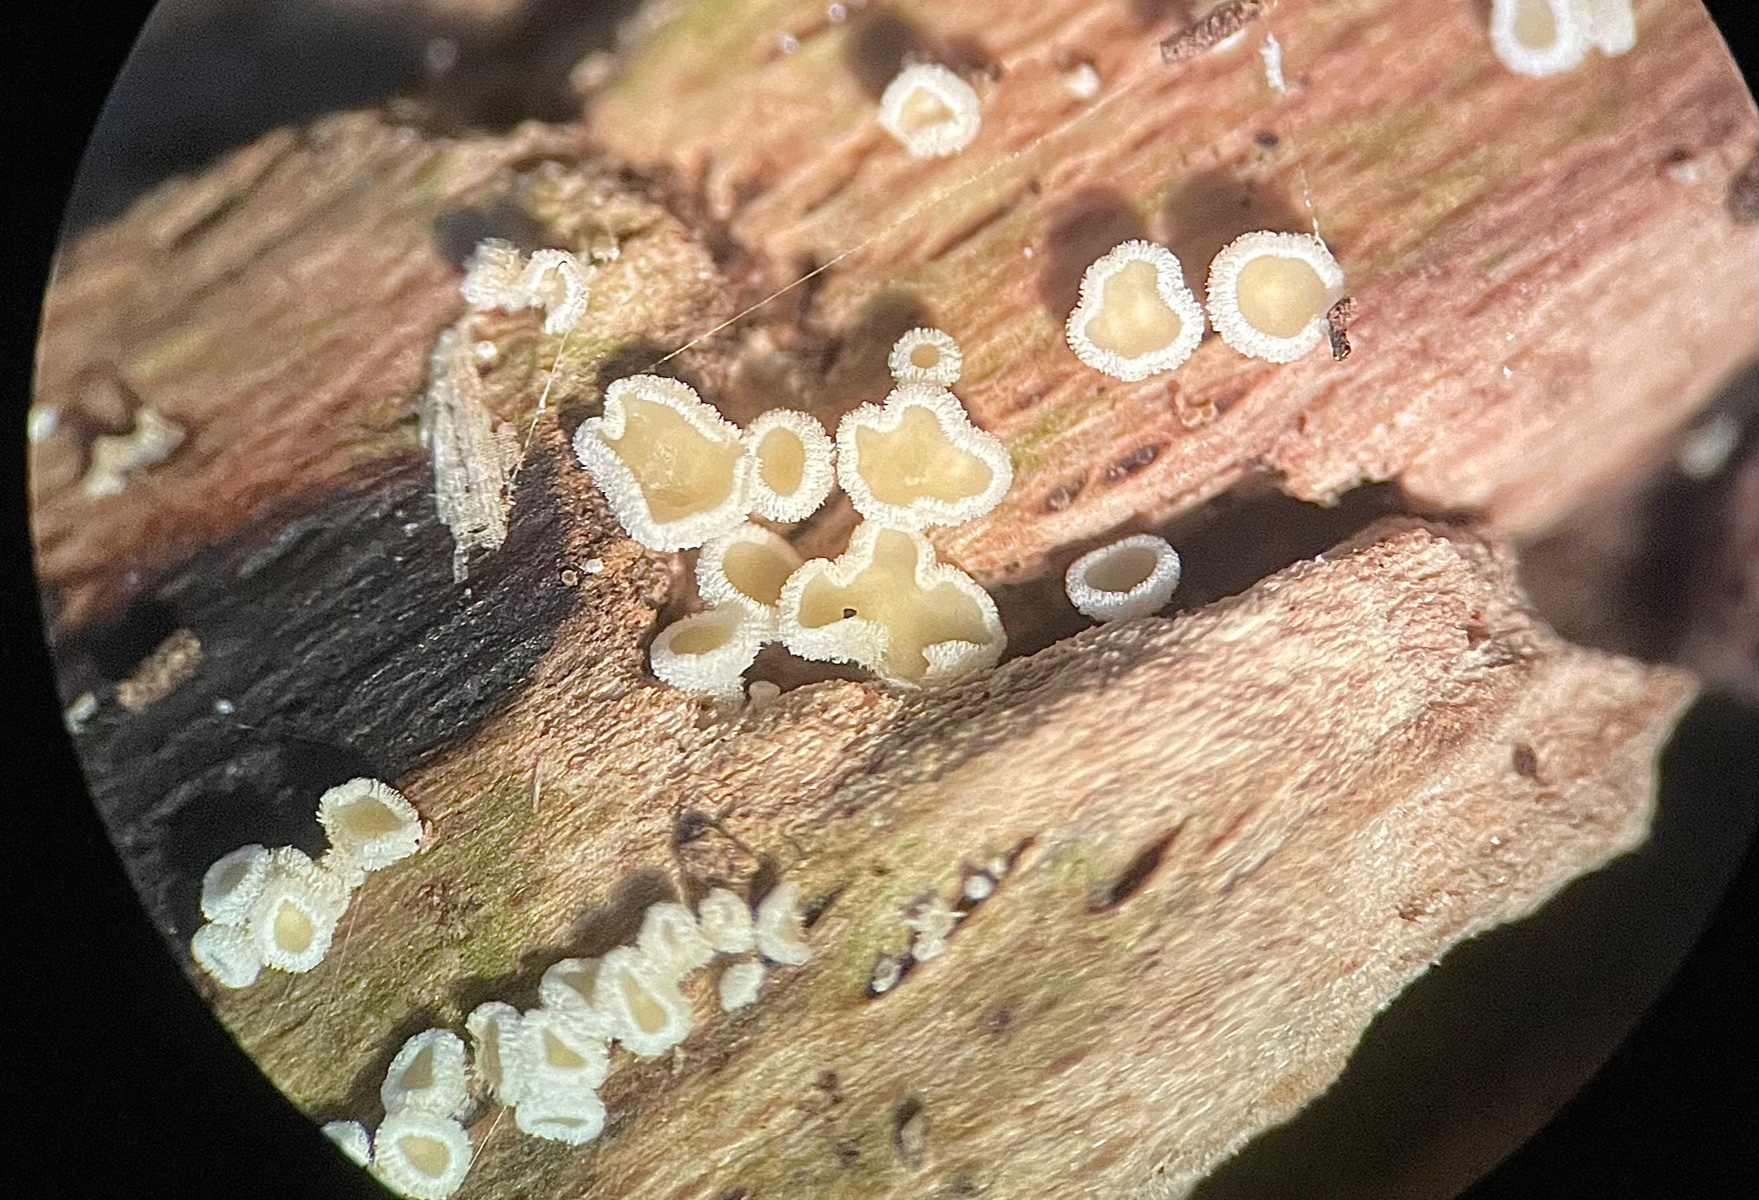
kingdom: Fungi
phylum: Ascomycota
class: Leotiomycetes
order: Helotiales
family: Hyaloscyphaceae
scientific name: Hyaloscyphaceae
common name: frynseskivefamilien
